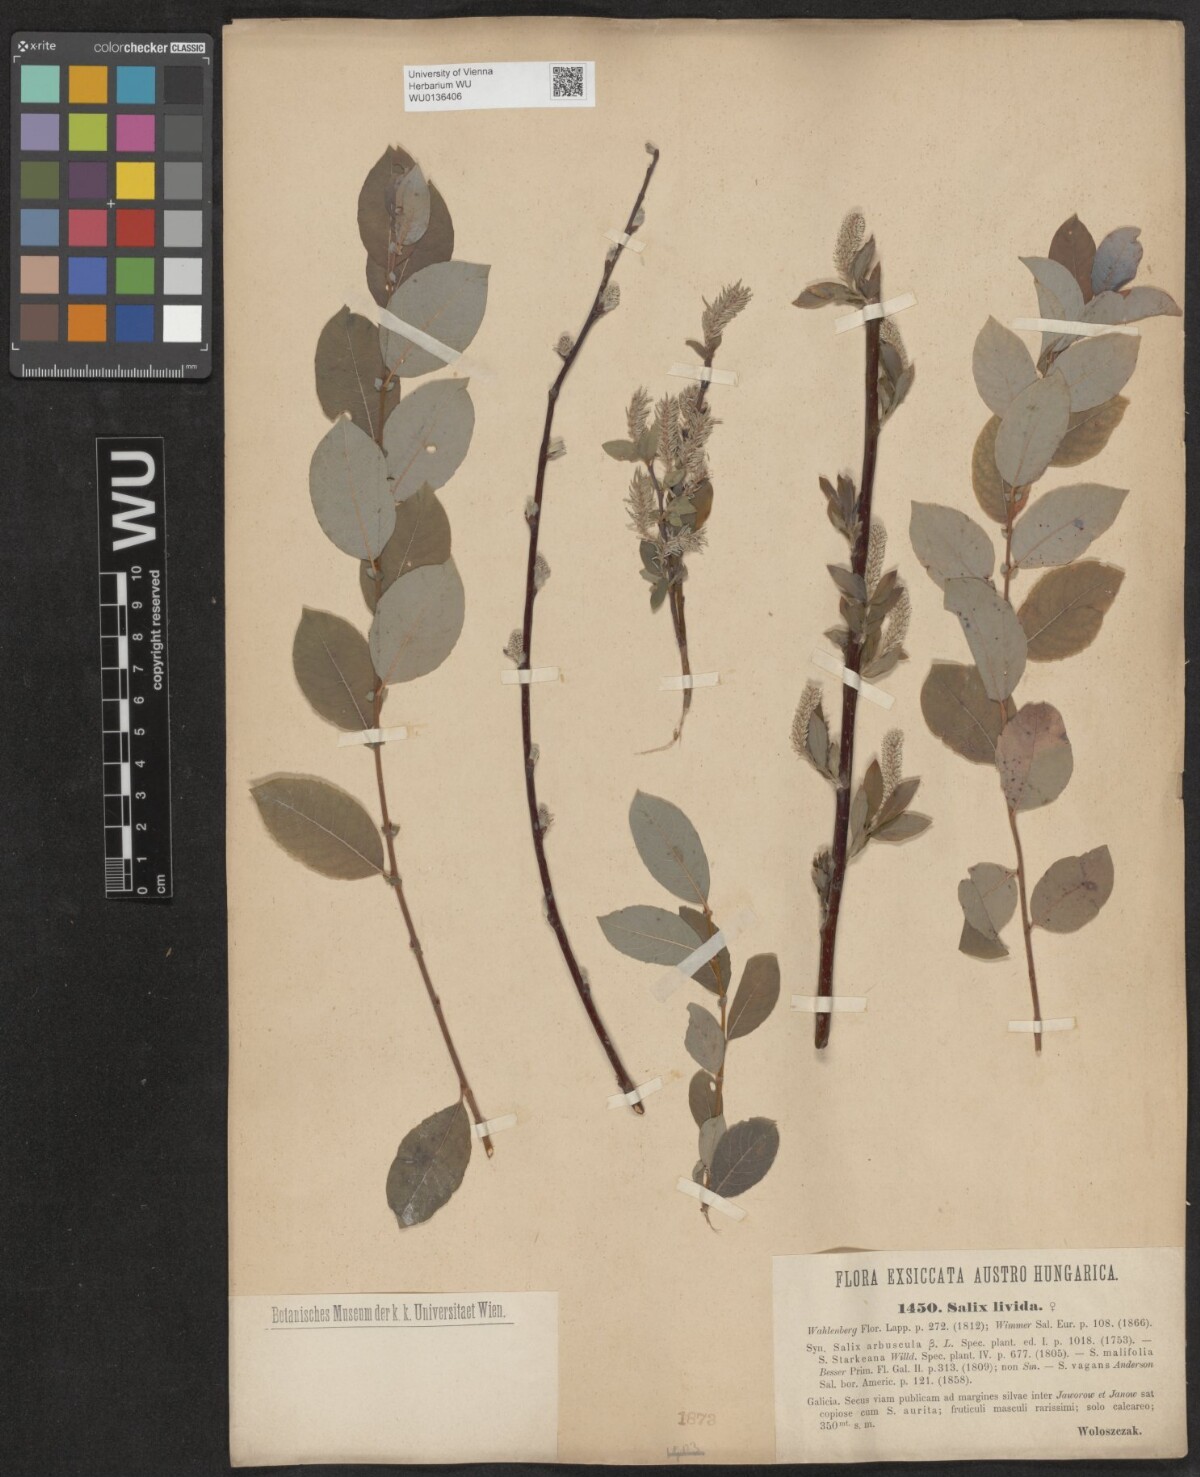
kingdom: Plantae
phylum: Tracheophyta
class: Magnoliopsida
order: Malpighiales
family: Salicaceae
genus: Salix
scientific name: Salix lanata
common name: Woolly willow
